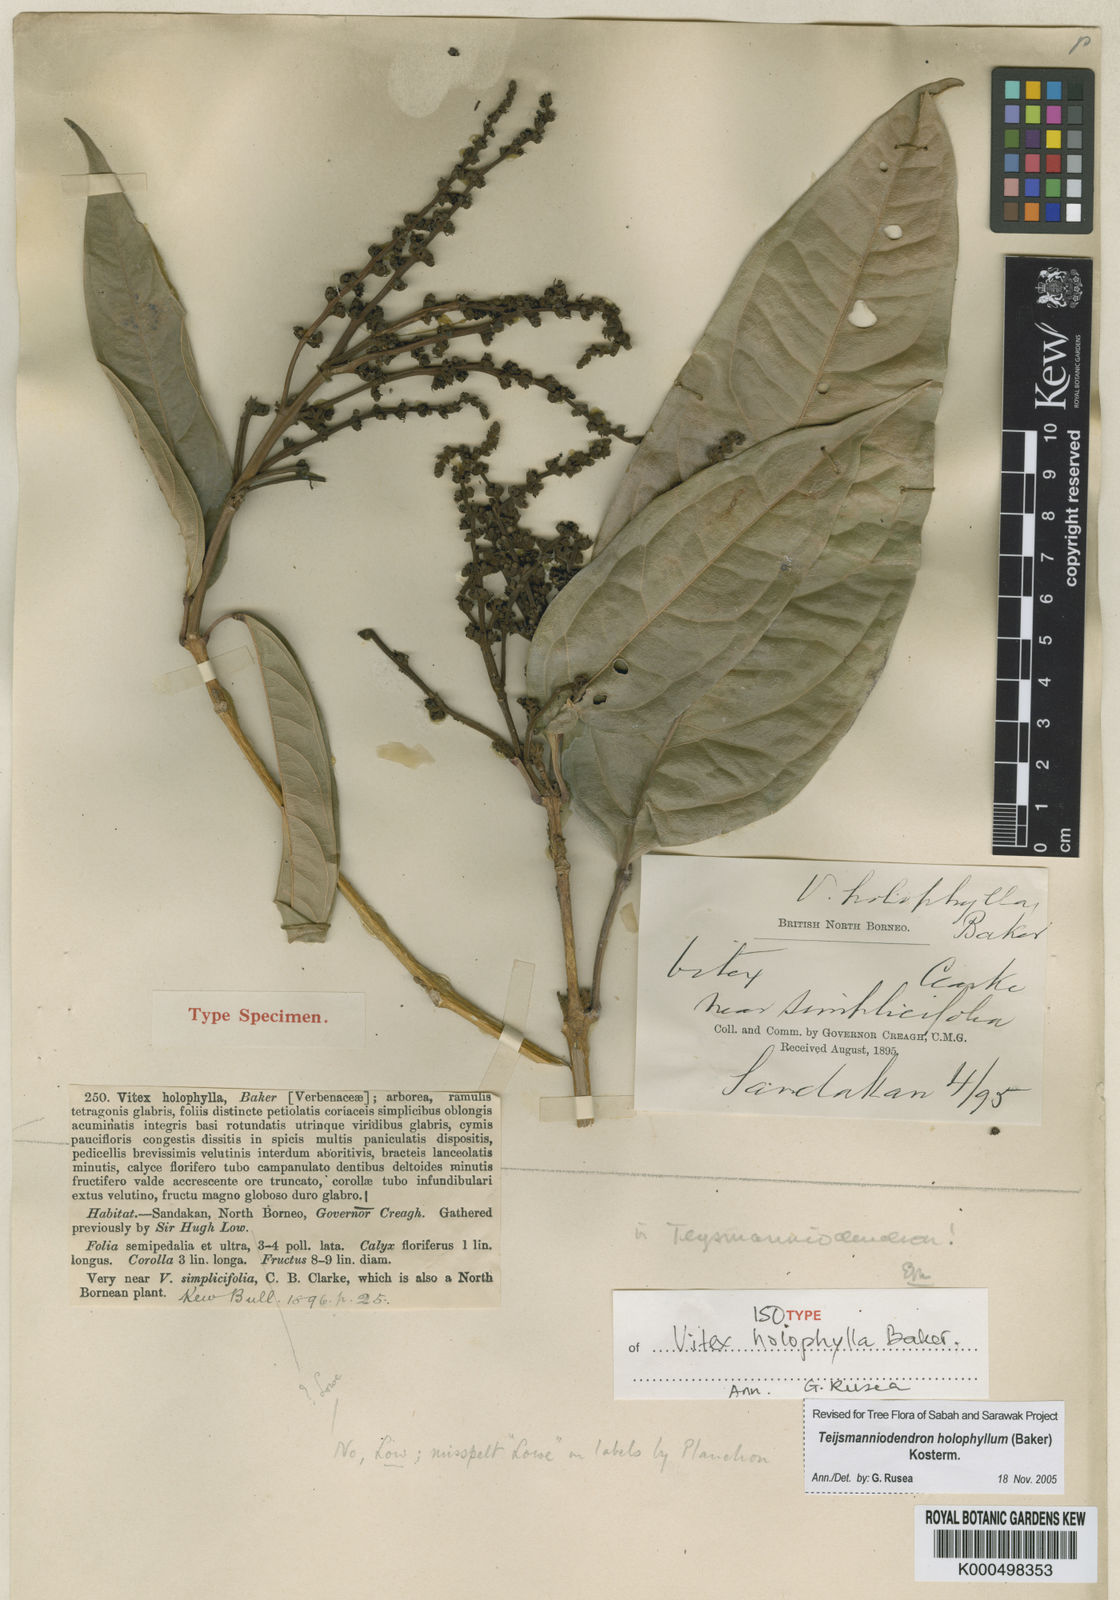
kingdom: Plantae
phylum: Tracheophyta
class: Magnoliopsida
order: Lamiales
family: Lamiaceae
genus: Teijsmanniodendron
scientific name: Teijsmanniodendron holophyllum
